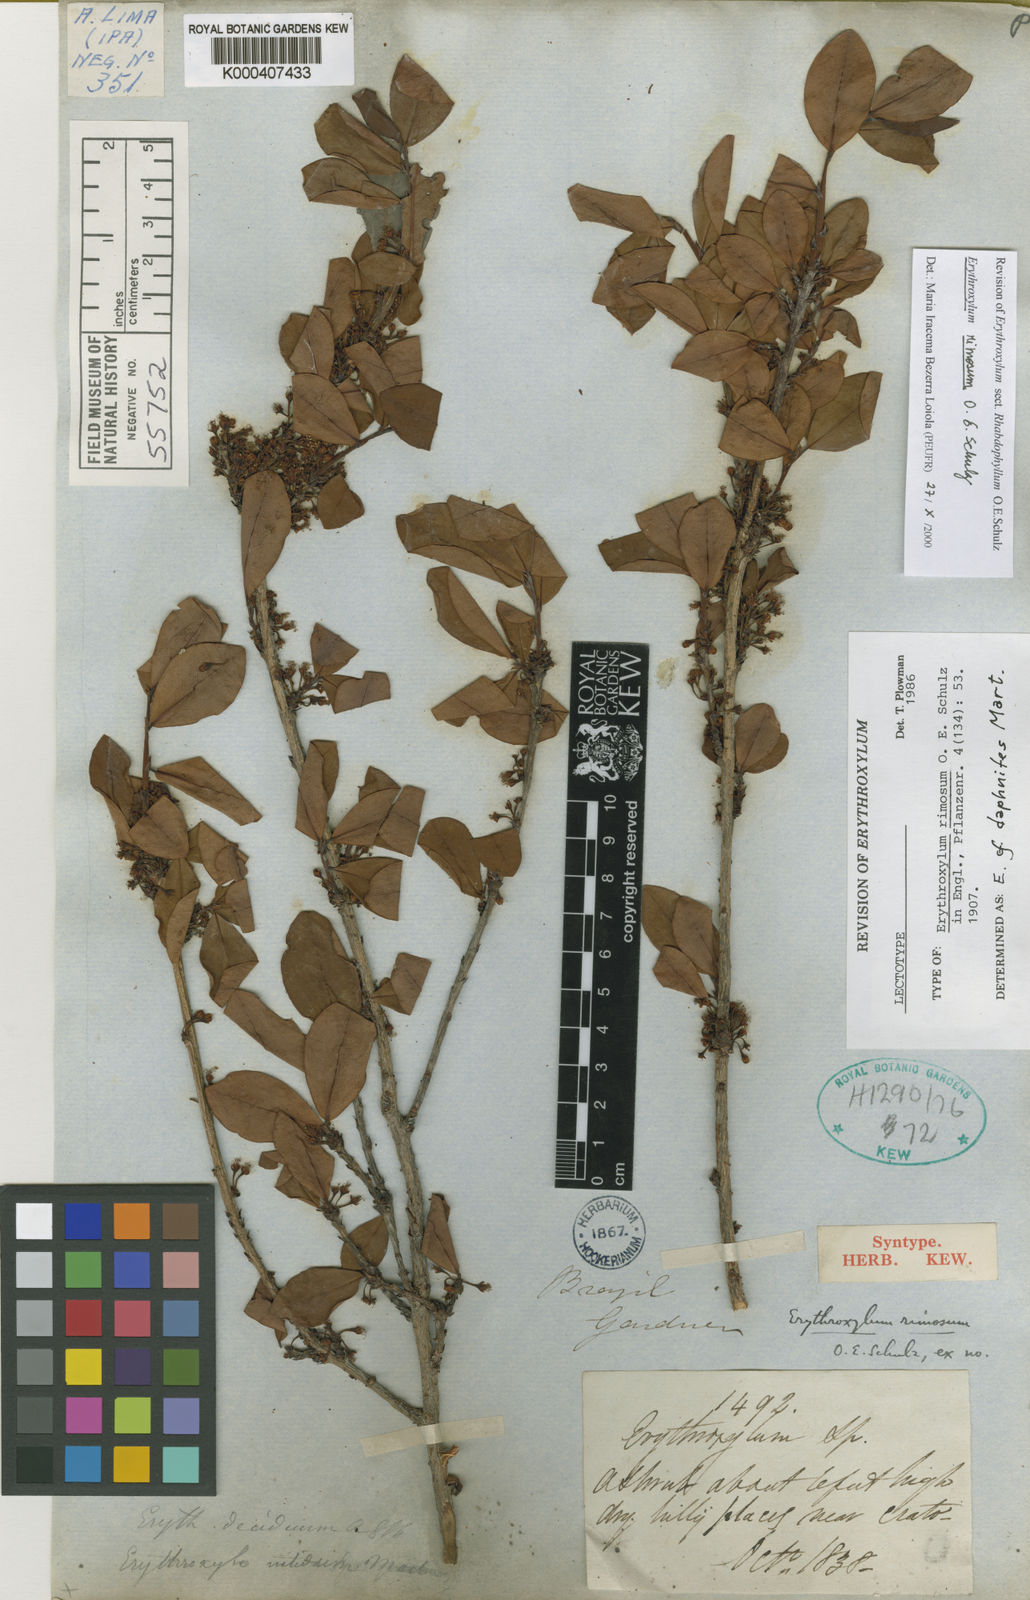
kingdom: Plantae
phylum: Tracheophyta
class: Magnoliopsida
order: Malpighiales
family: Erythroxylaceae
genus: Erythroxylum
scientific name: Erythroxylum rimosum
